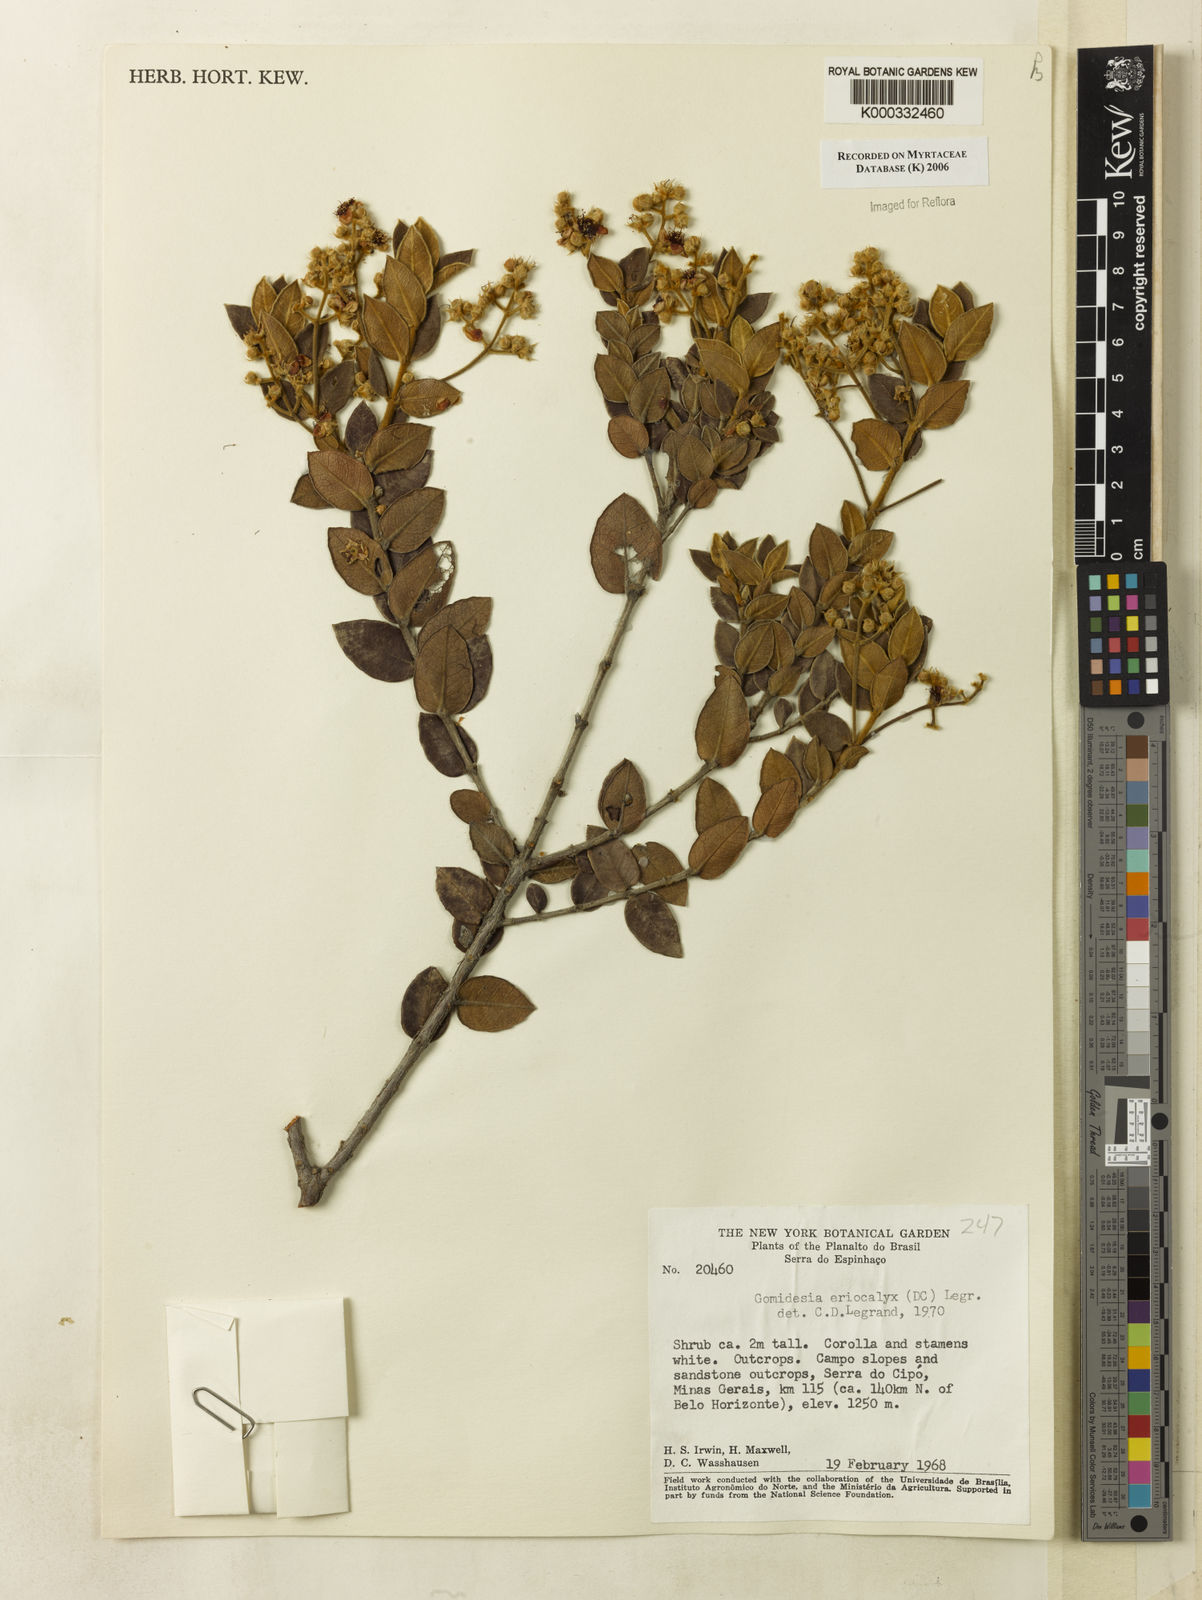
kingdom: Plantae
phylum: Tracheophyta
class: Magnoliopsida
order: Myrtales
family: Myrtaceae
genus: Myrcia
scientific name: Myrcia eriocalyx
